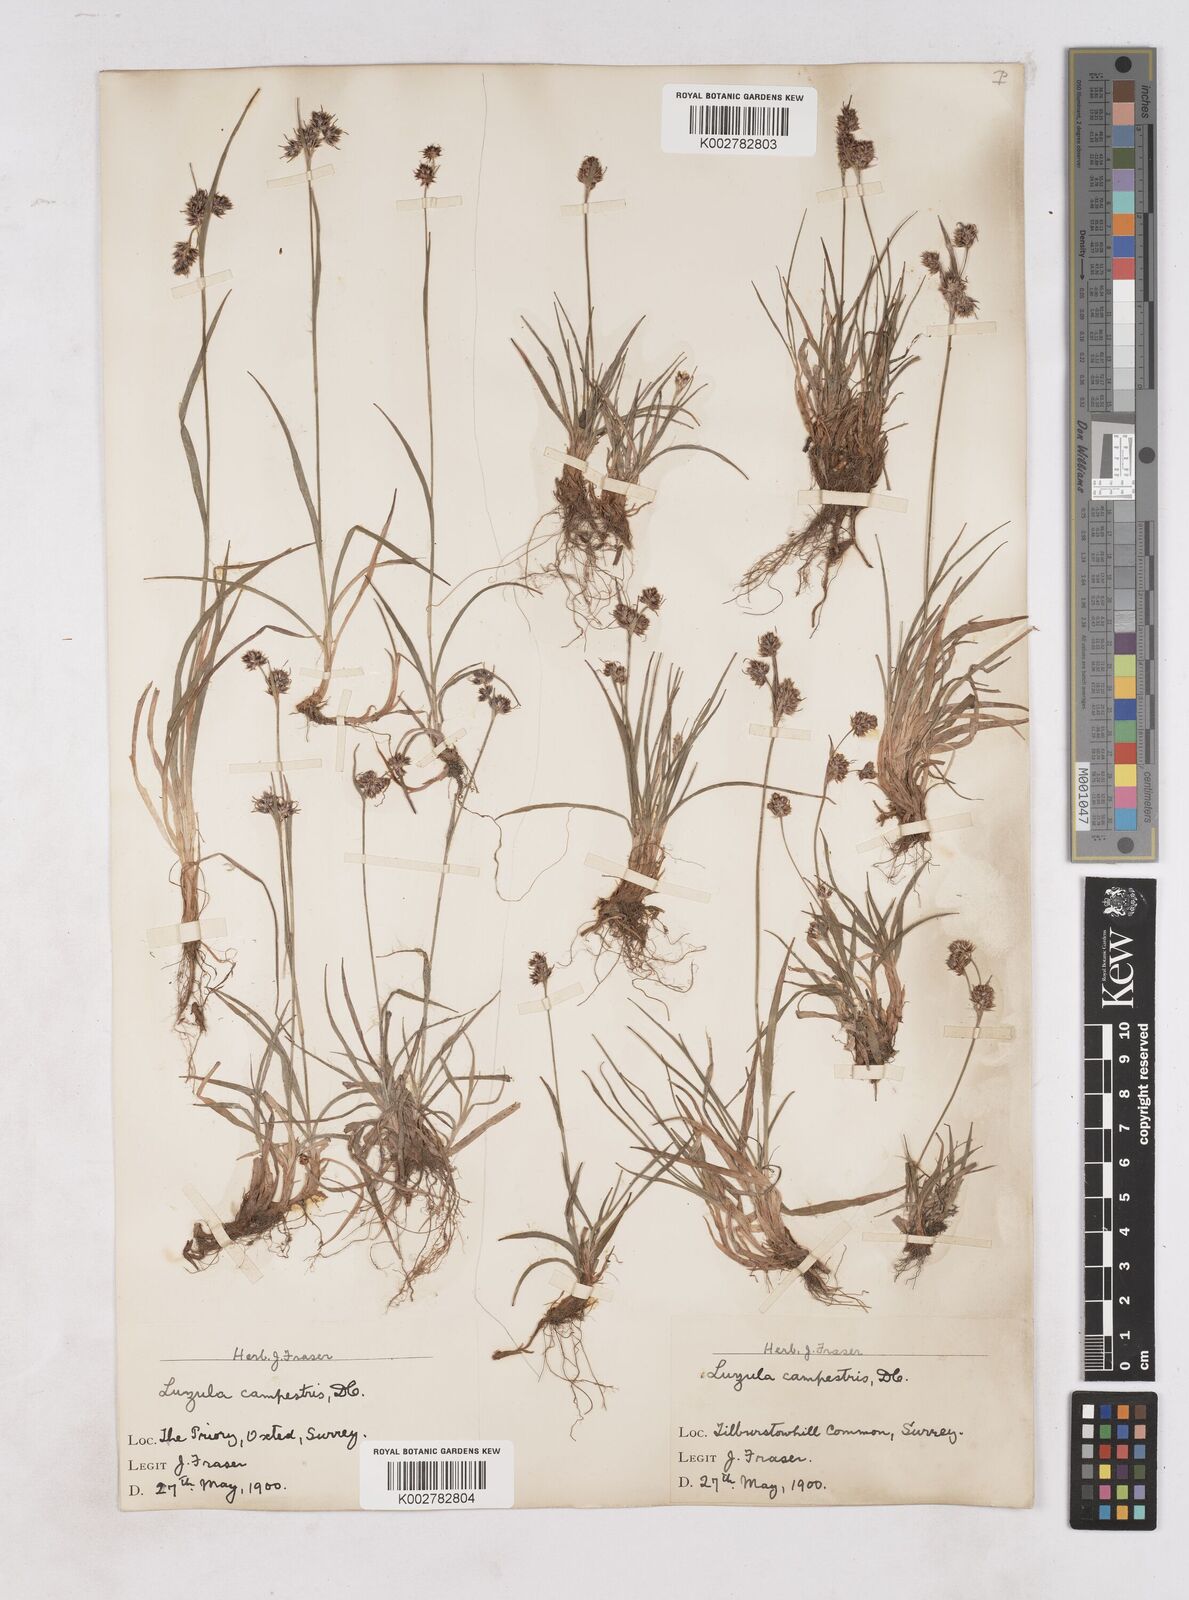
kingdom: Plantae
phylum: Tracheophyta
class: Liliopsida
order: Poales
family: Juncaceae
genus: Luzula
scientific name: Luzula campestris
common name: Field wood-rush
